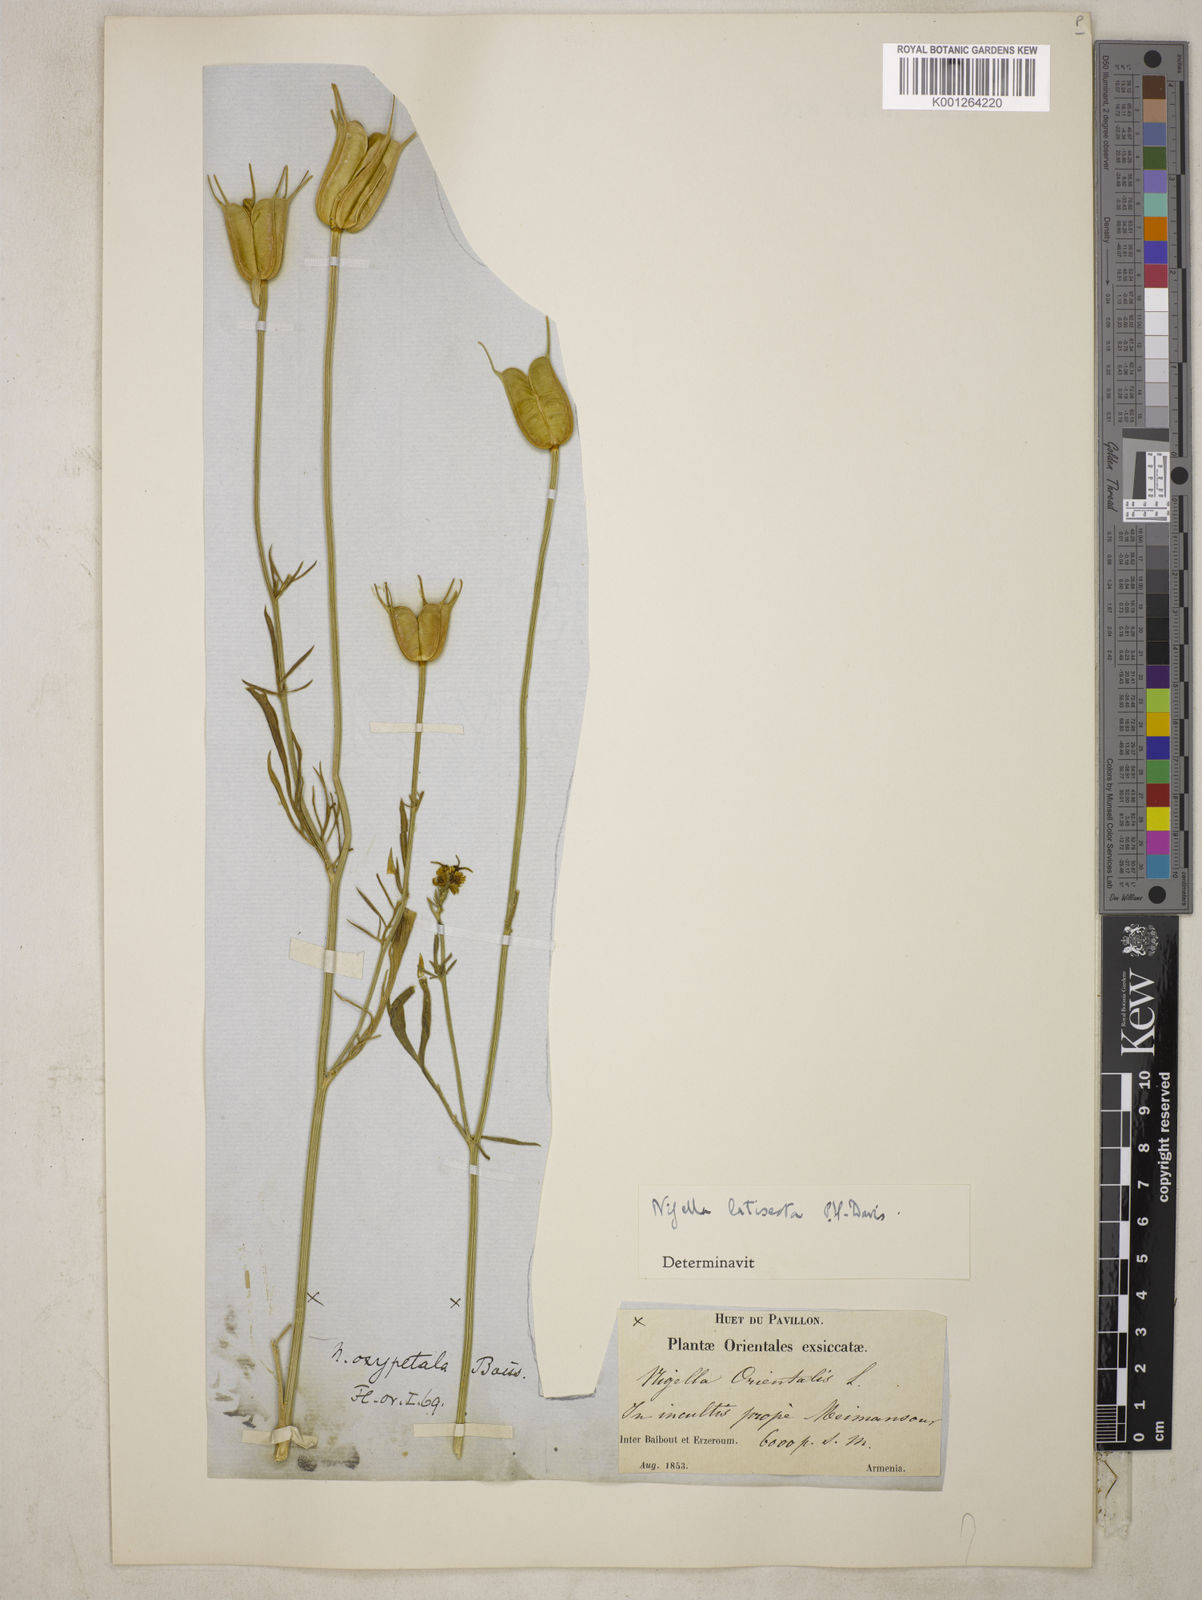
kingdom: Plantae
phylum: Tracheophyta
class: Magnoliopsida
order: Ranunculales
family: Ranunculaceae
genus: Nigella
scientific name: Nigella oxypetala
